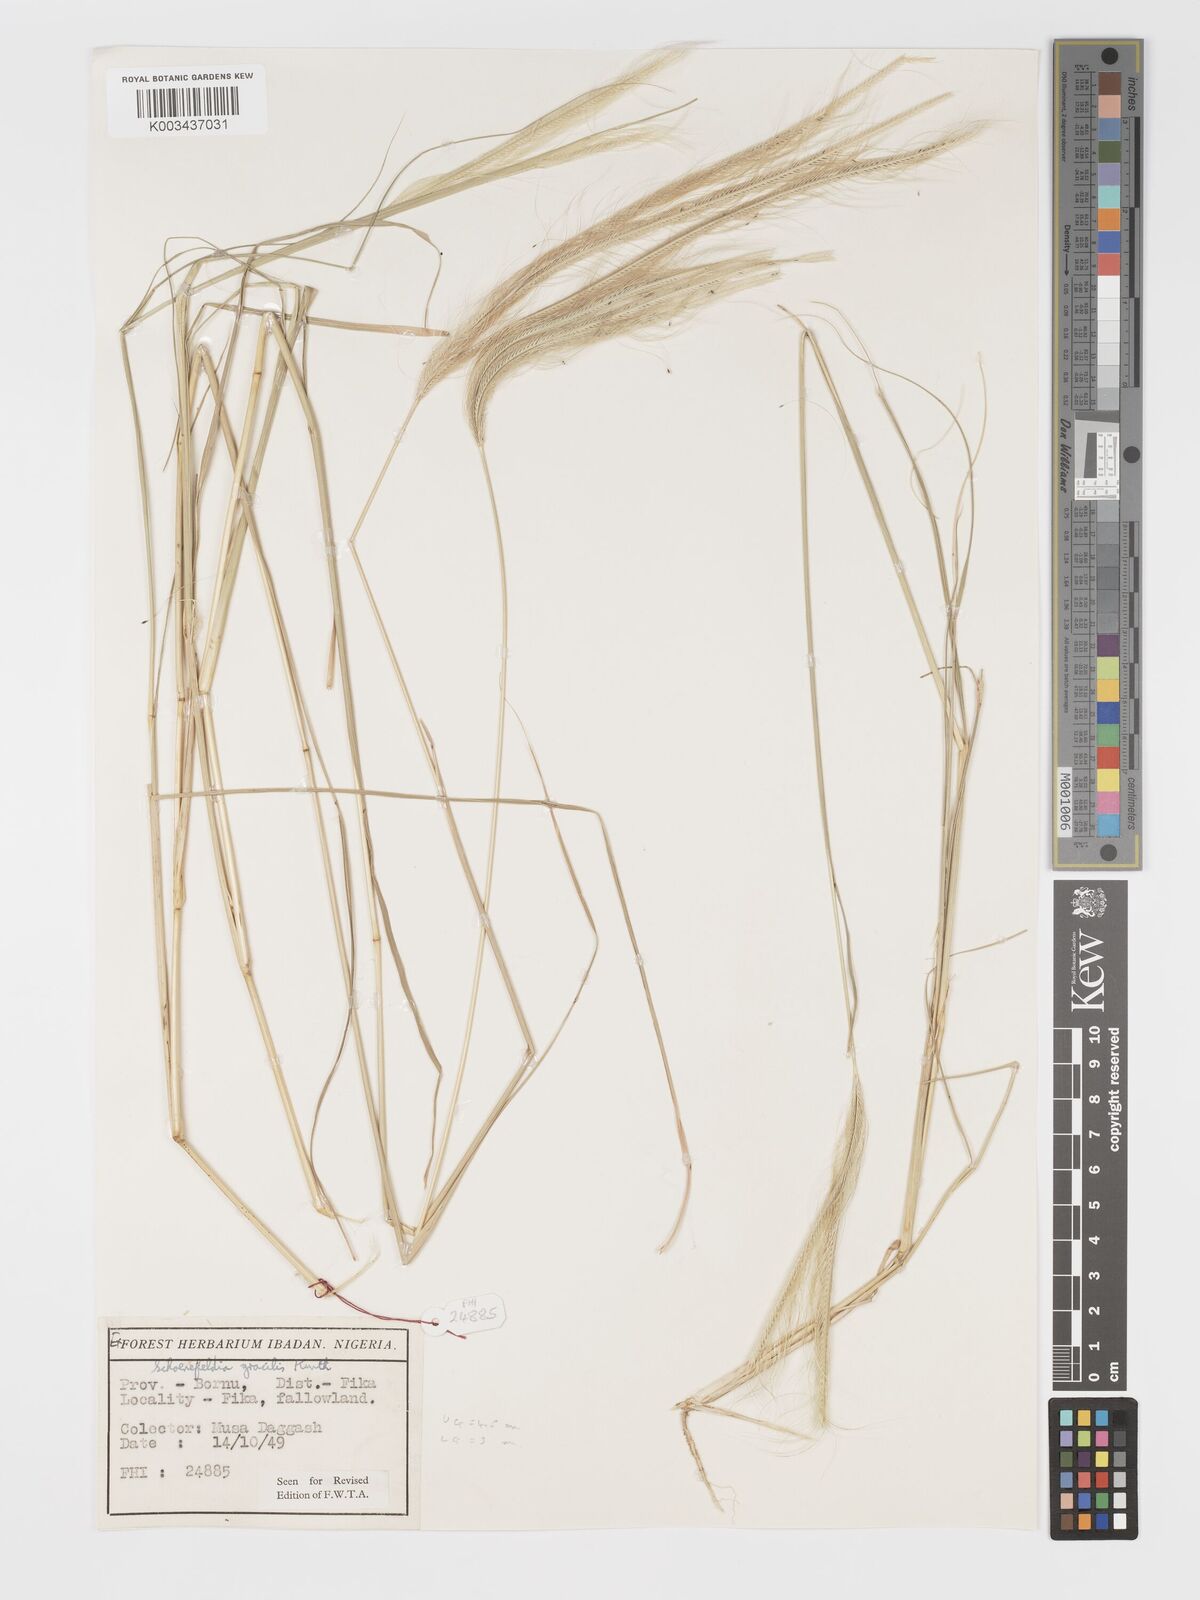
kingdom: Plantae
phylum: Tracheophyta
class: Liliopsida
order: Poales
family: Poaceae
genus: Schoenefeldia
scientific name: Schoenefeldia gracilis
